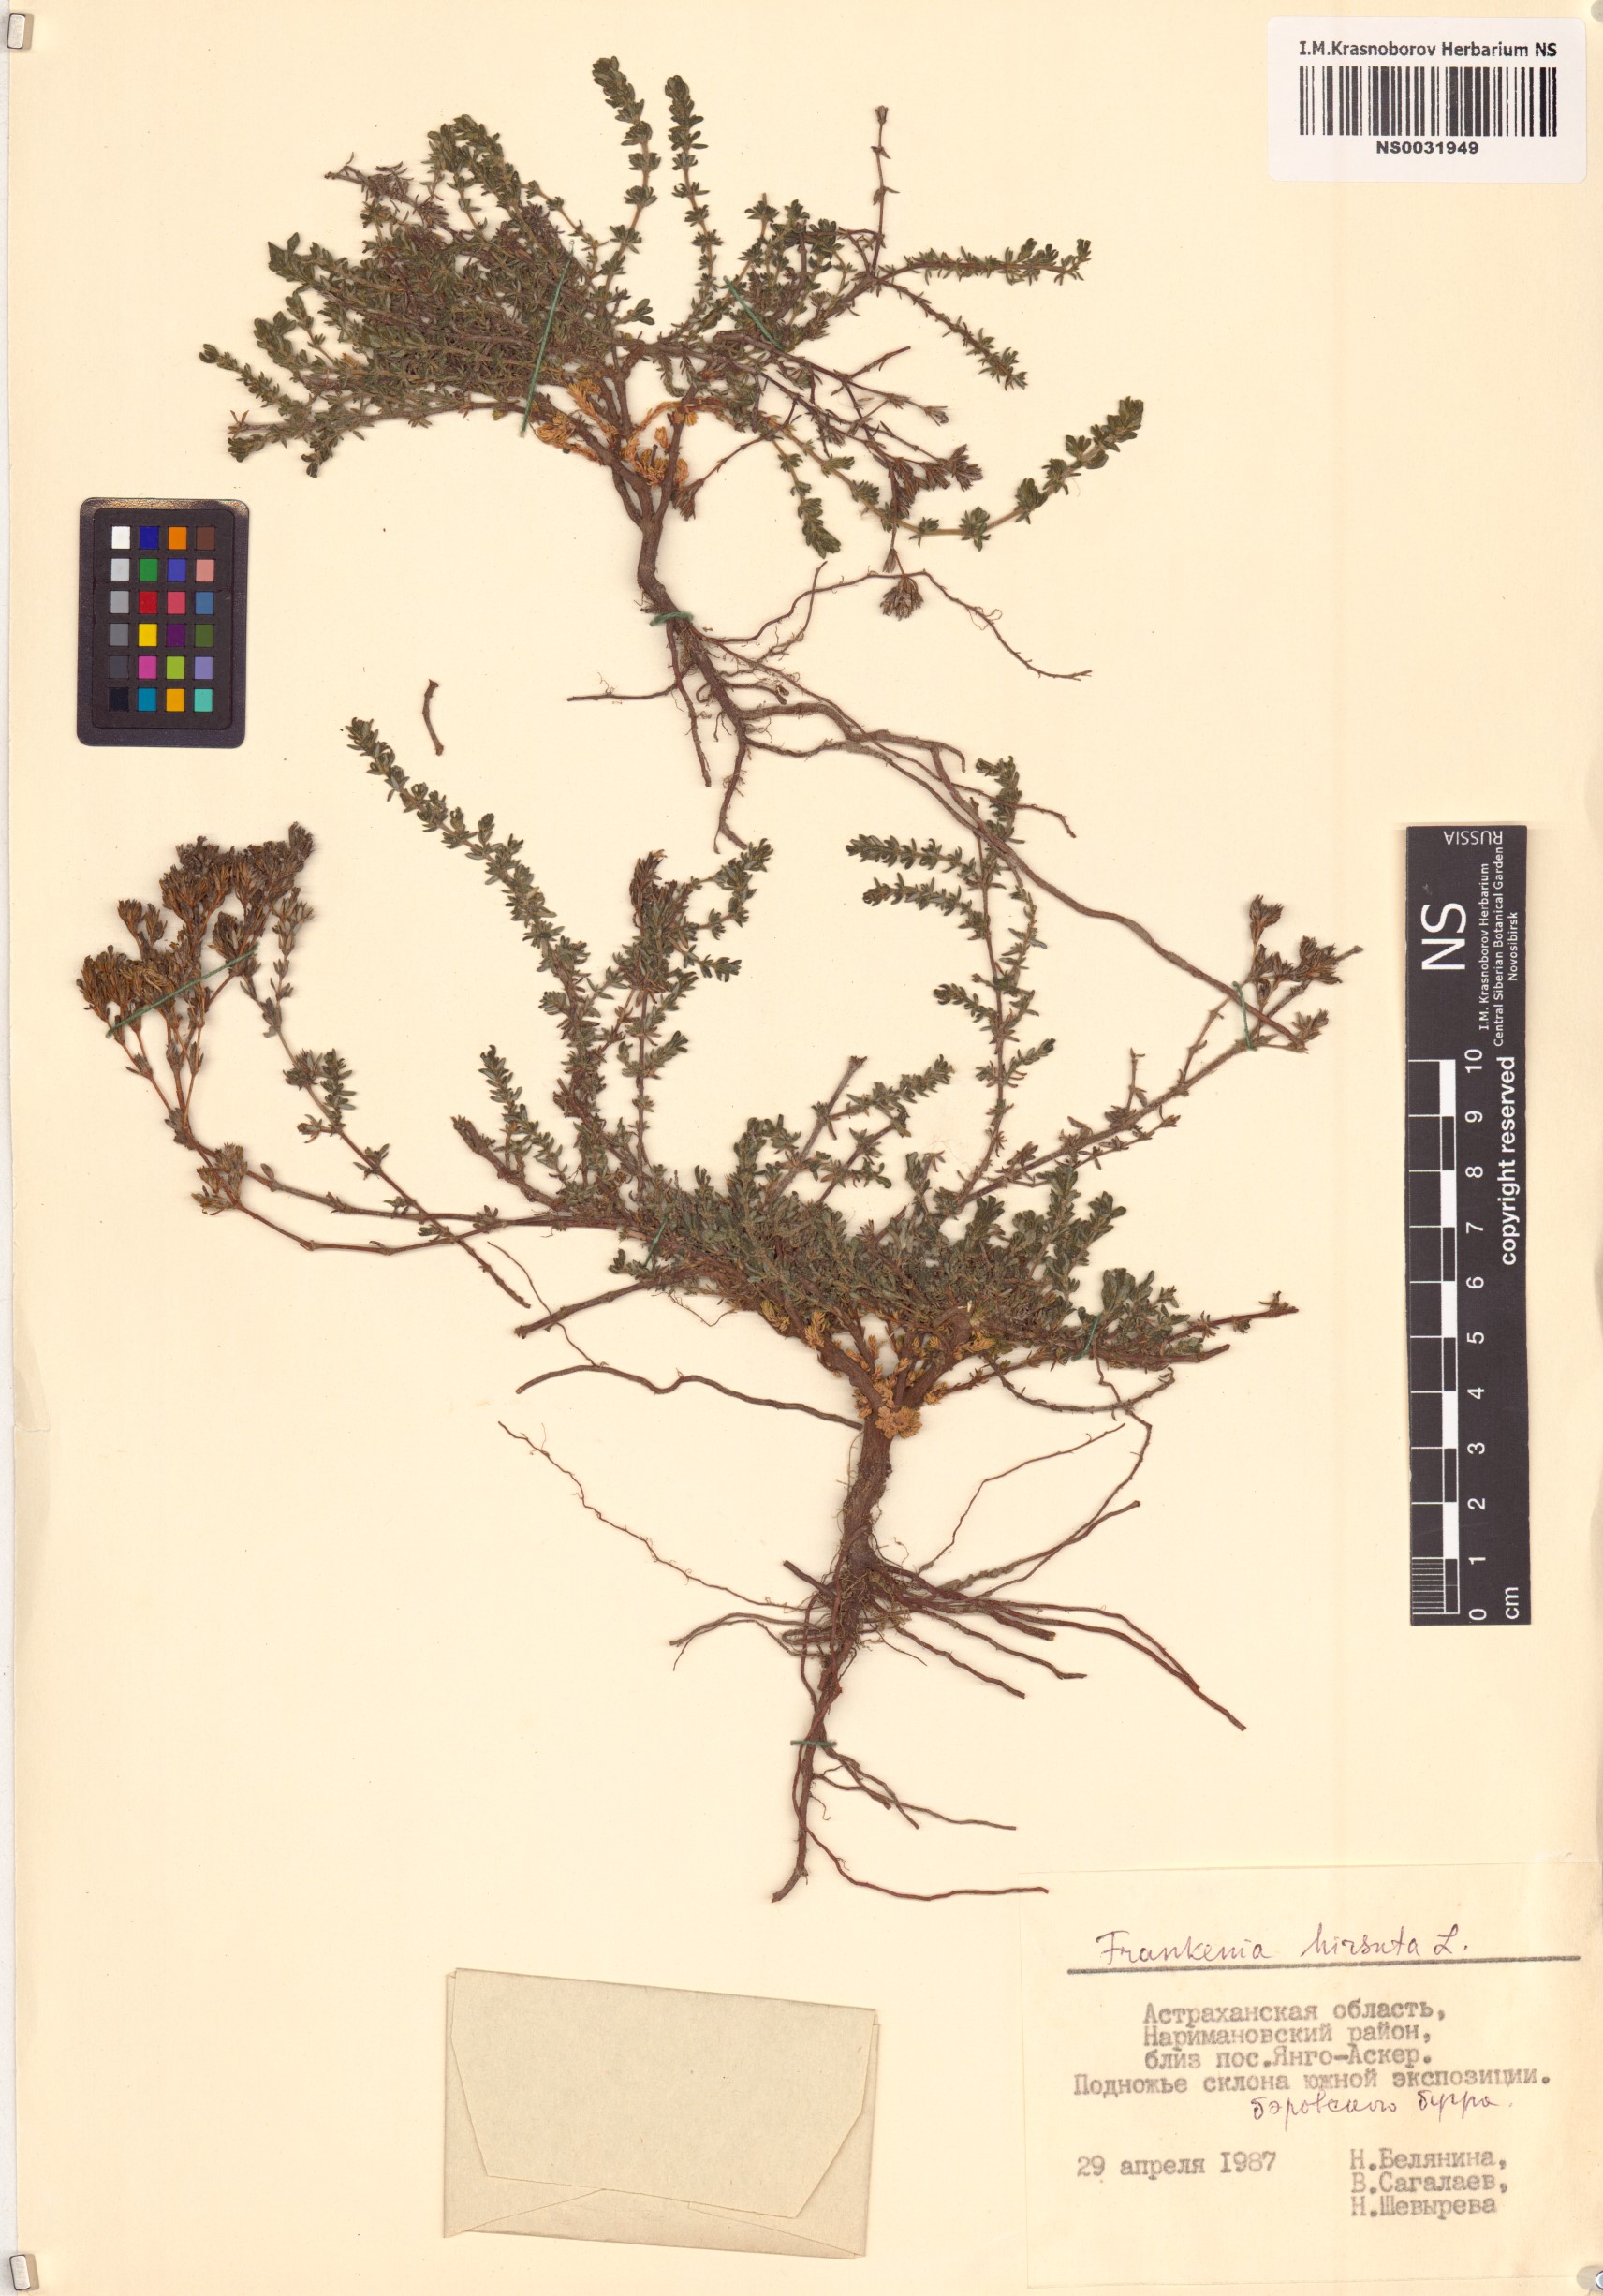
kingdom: Plantae
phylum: Tracheophyta
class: Magnoliopsida
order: Caryophyllales
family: Frankeniaceae
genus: Frankenia
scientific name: Frankenia hirsuta
